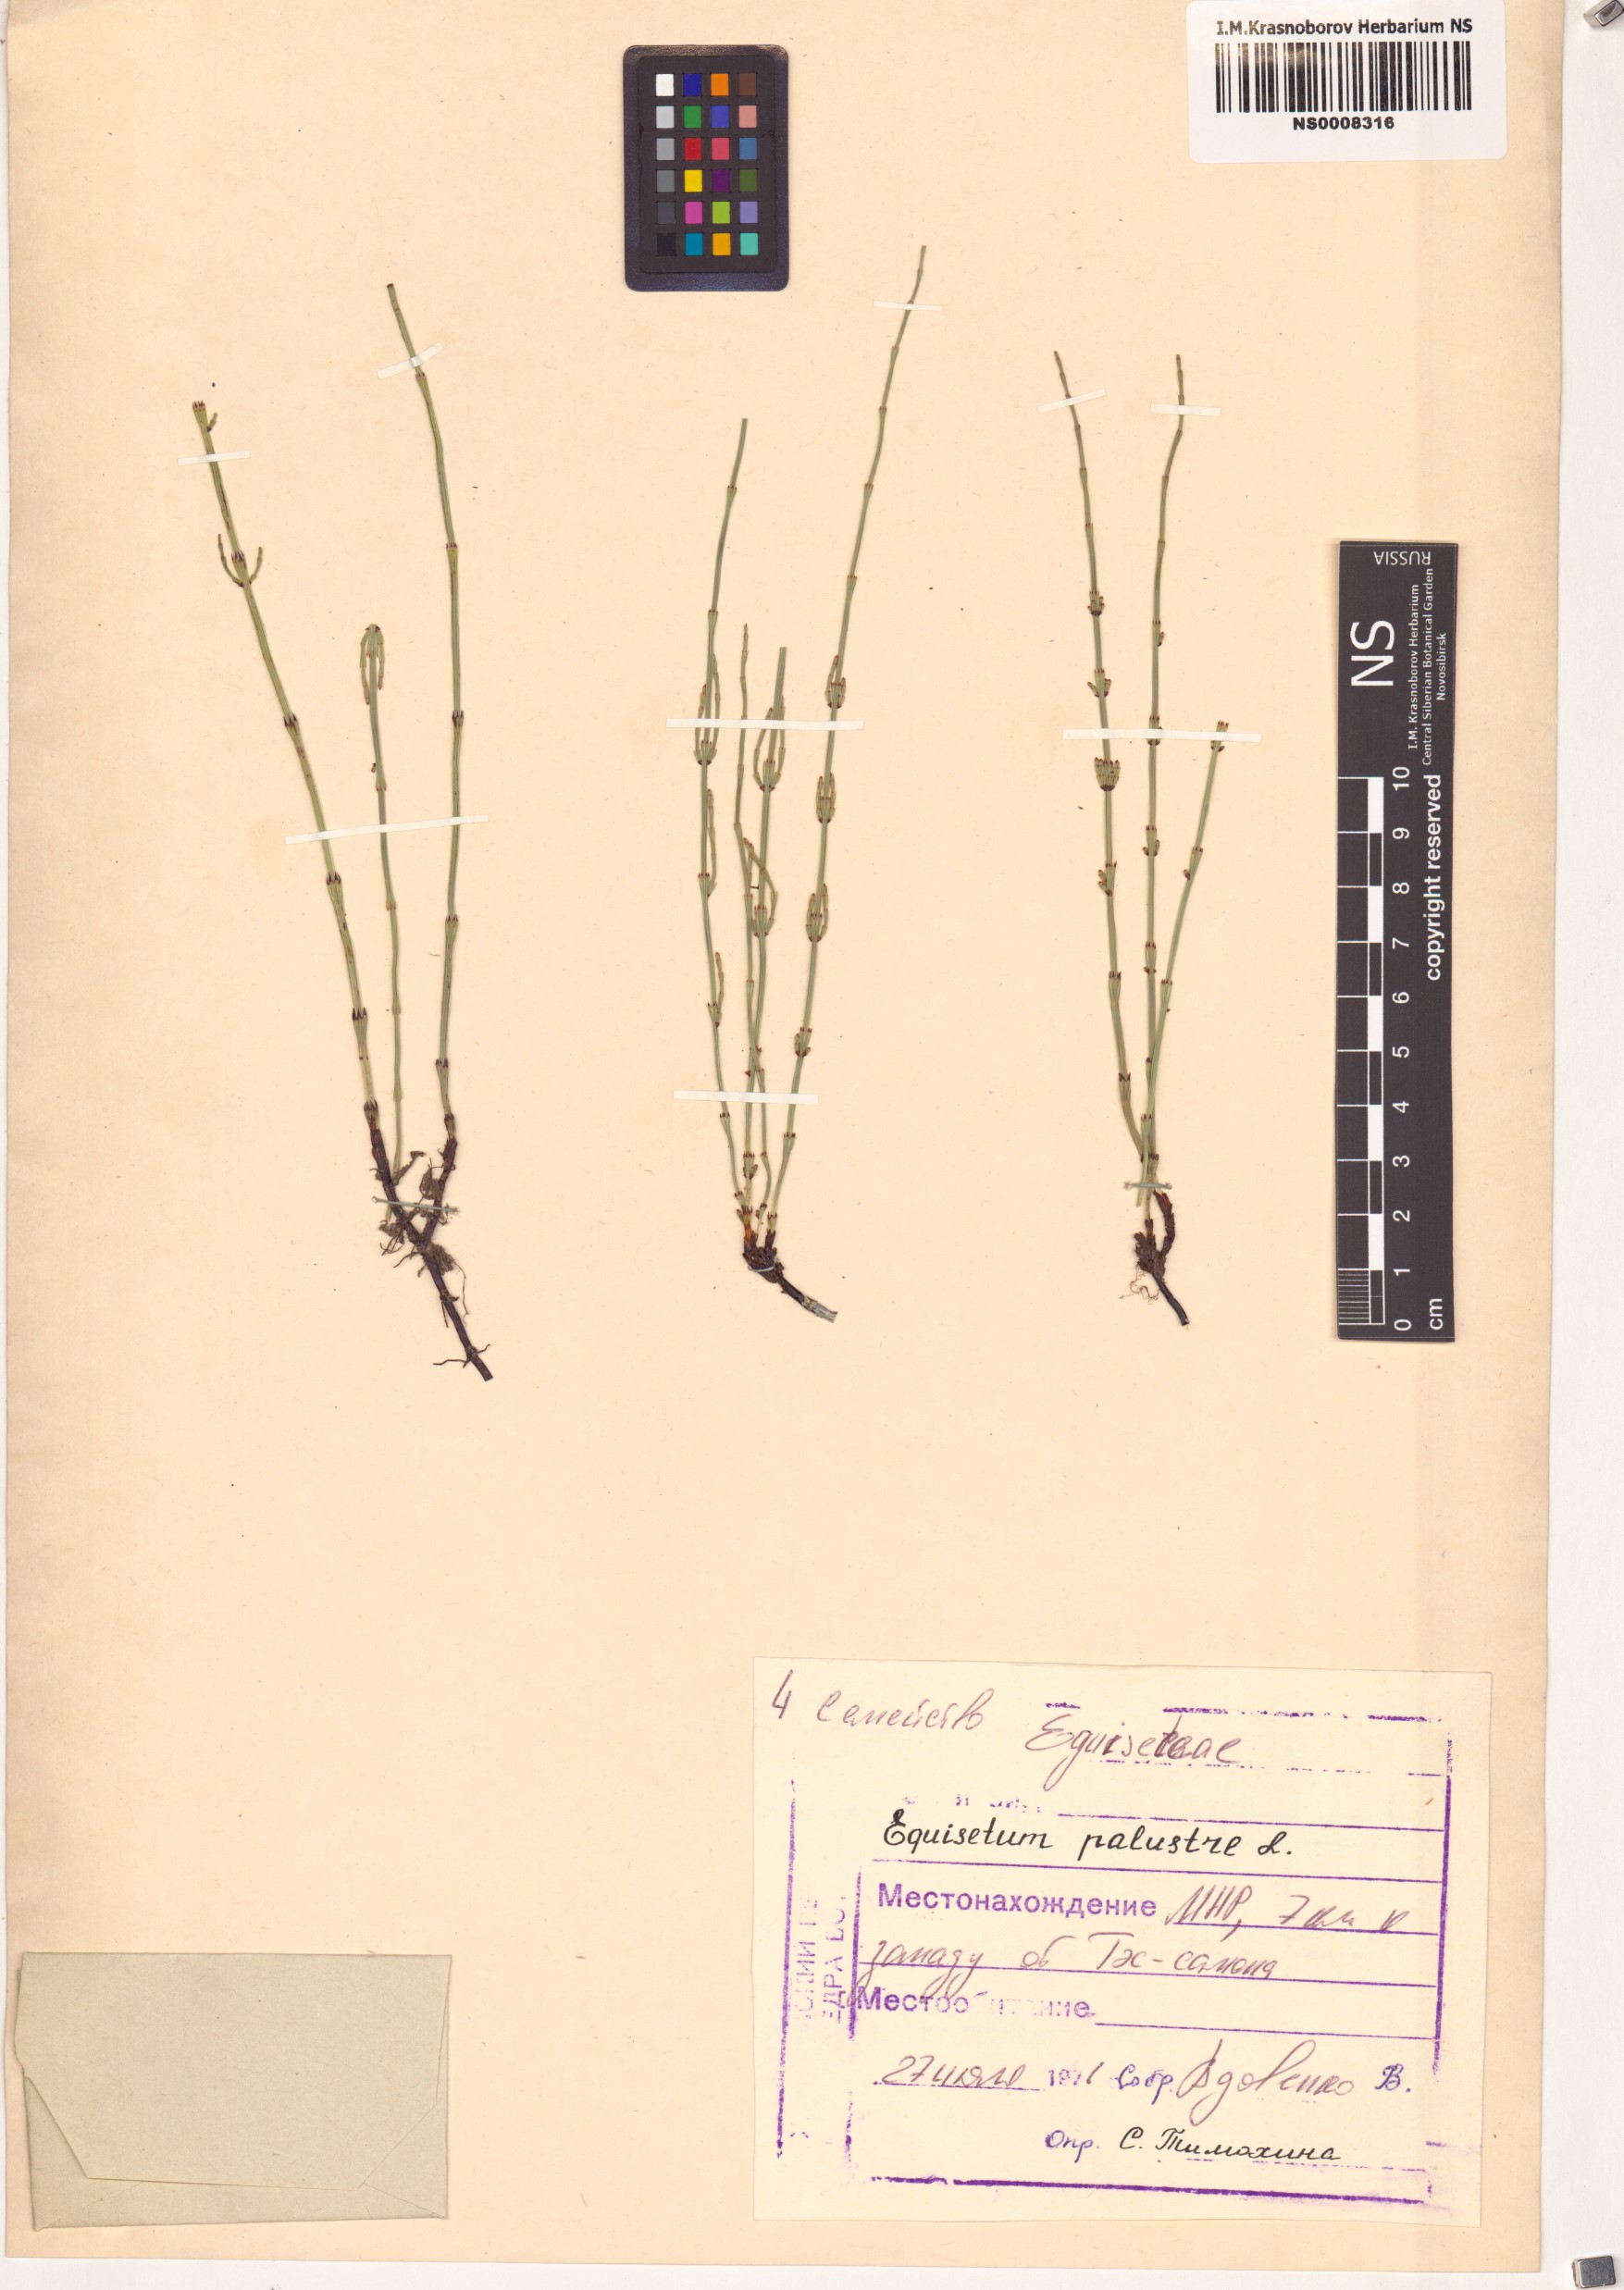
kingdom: Plantae
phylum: Tracheophyta
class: Polypodiopsida
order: Equisetales
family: Equisetaceae
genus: Equisetum
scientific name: Equisetum palustre
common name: Marsh horsetail
